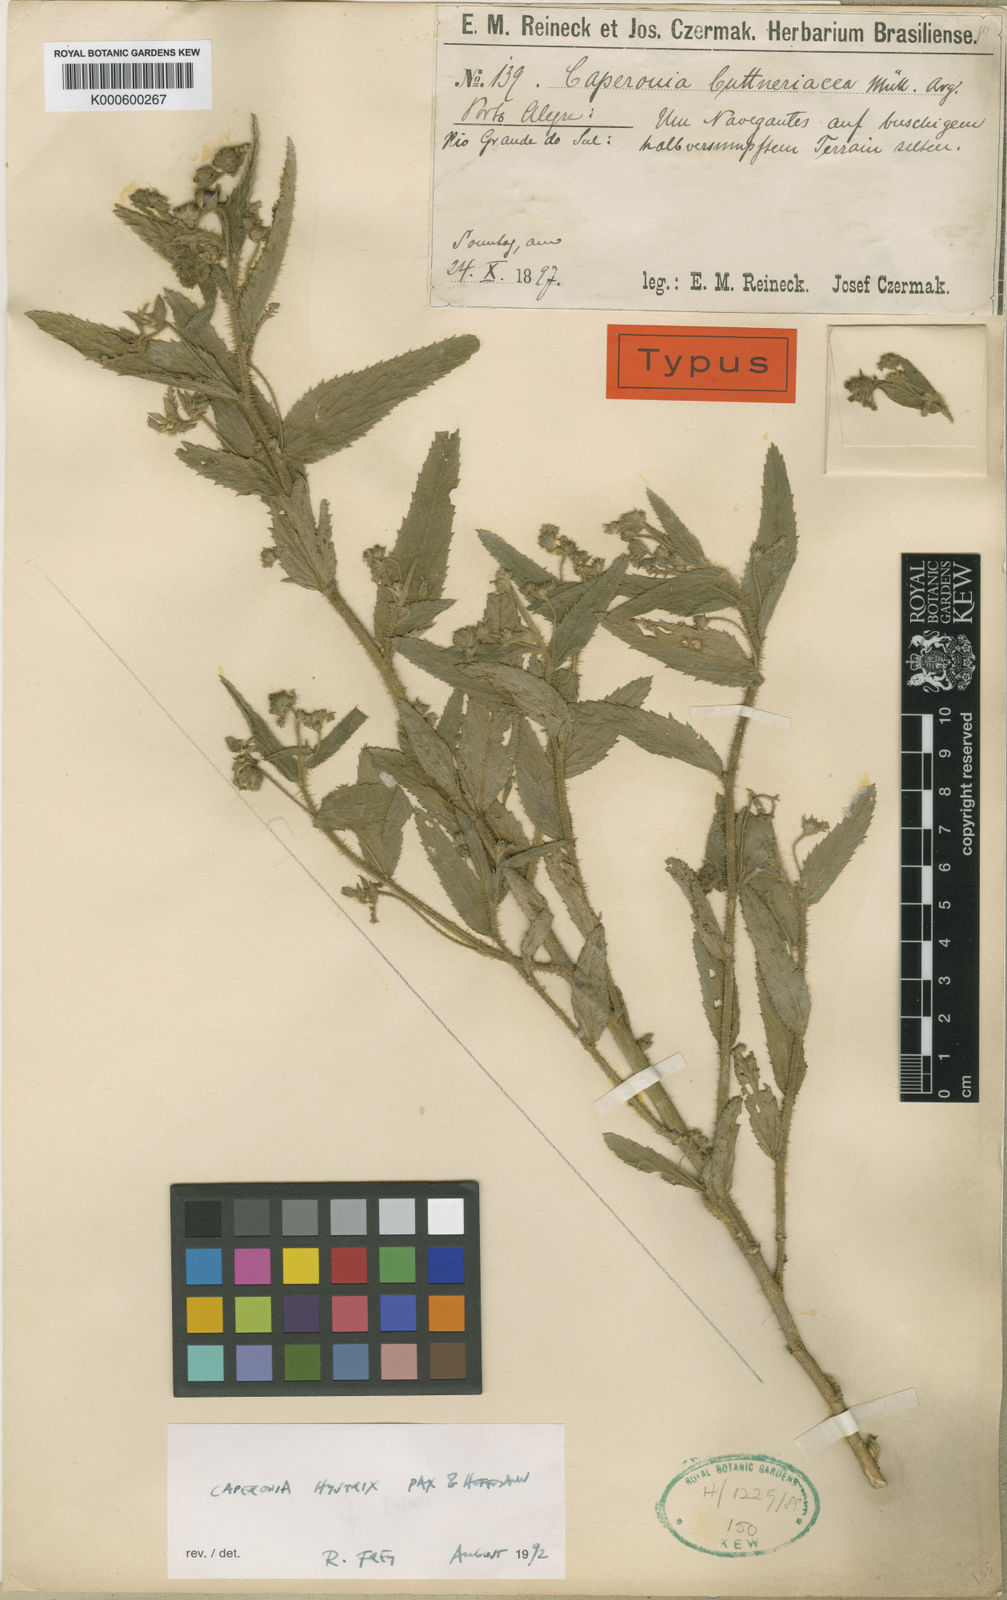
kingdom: Plantae
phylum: Tracheophyta
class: Magnoliopsida
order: Malpighiales
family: Euphorbiaceae
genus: Caperonia
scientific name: Caperonia linearifolia
